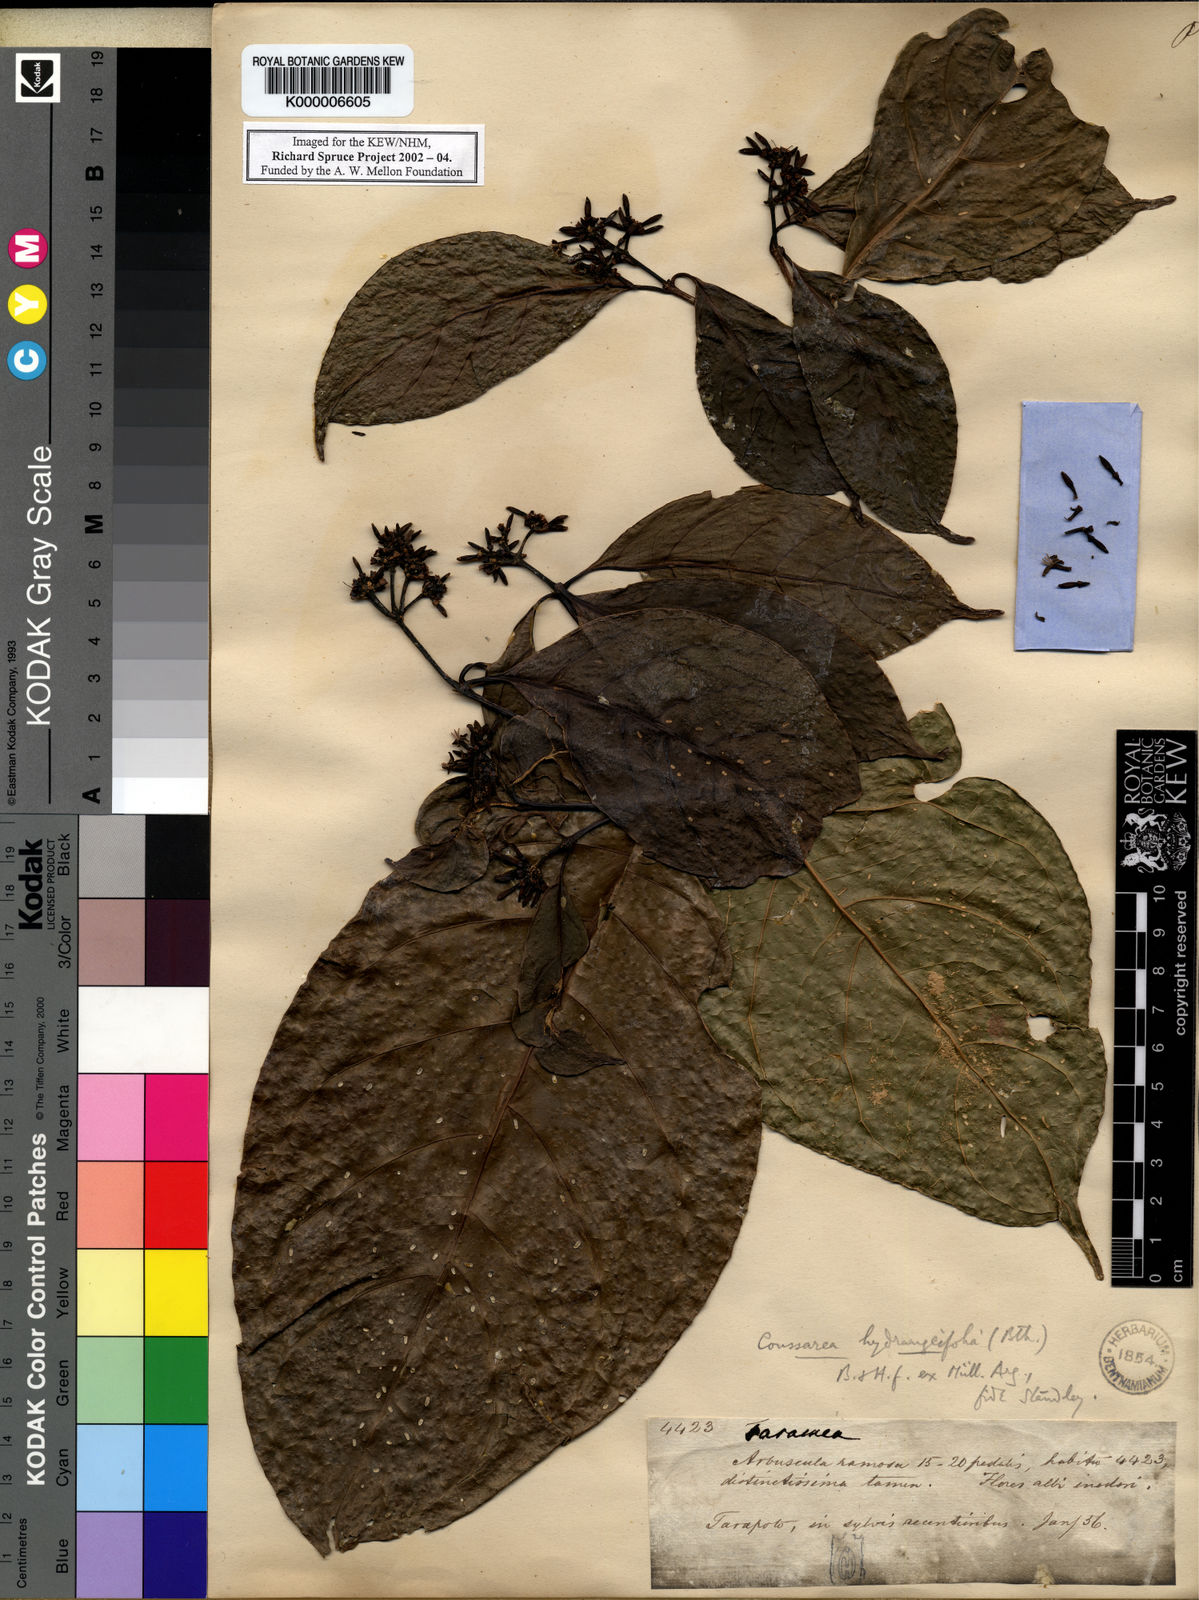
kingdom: Plantae
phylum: Tracheophyta
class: Magnoliopsida
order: Gentianales
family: Rubiaceae
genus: Coussarea
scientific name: Coussarea
